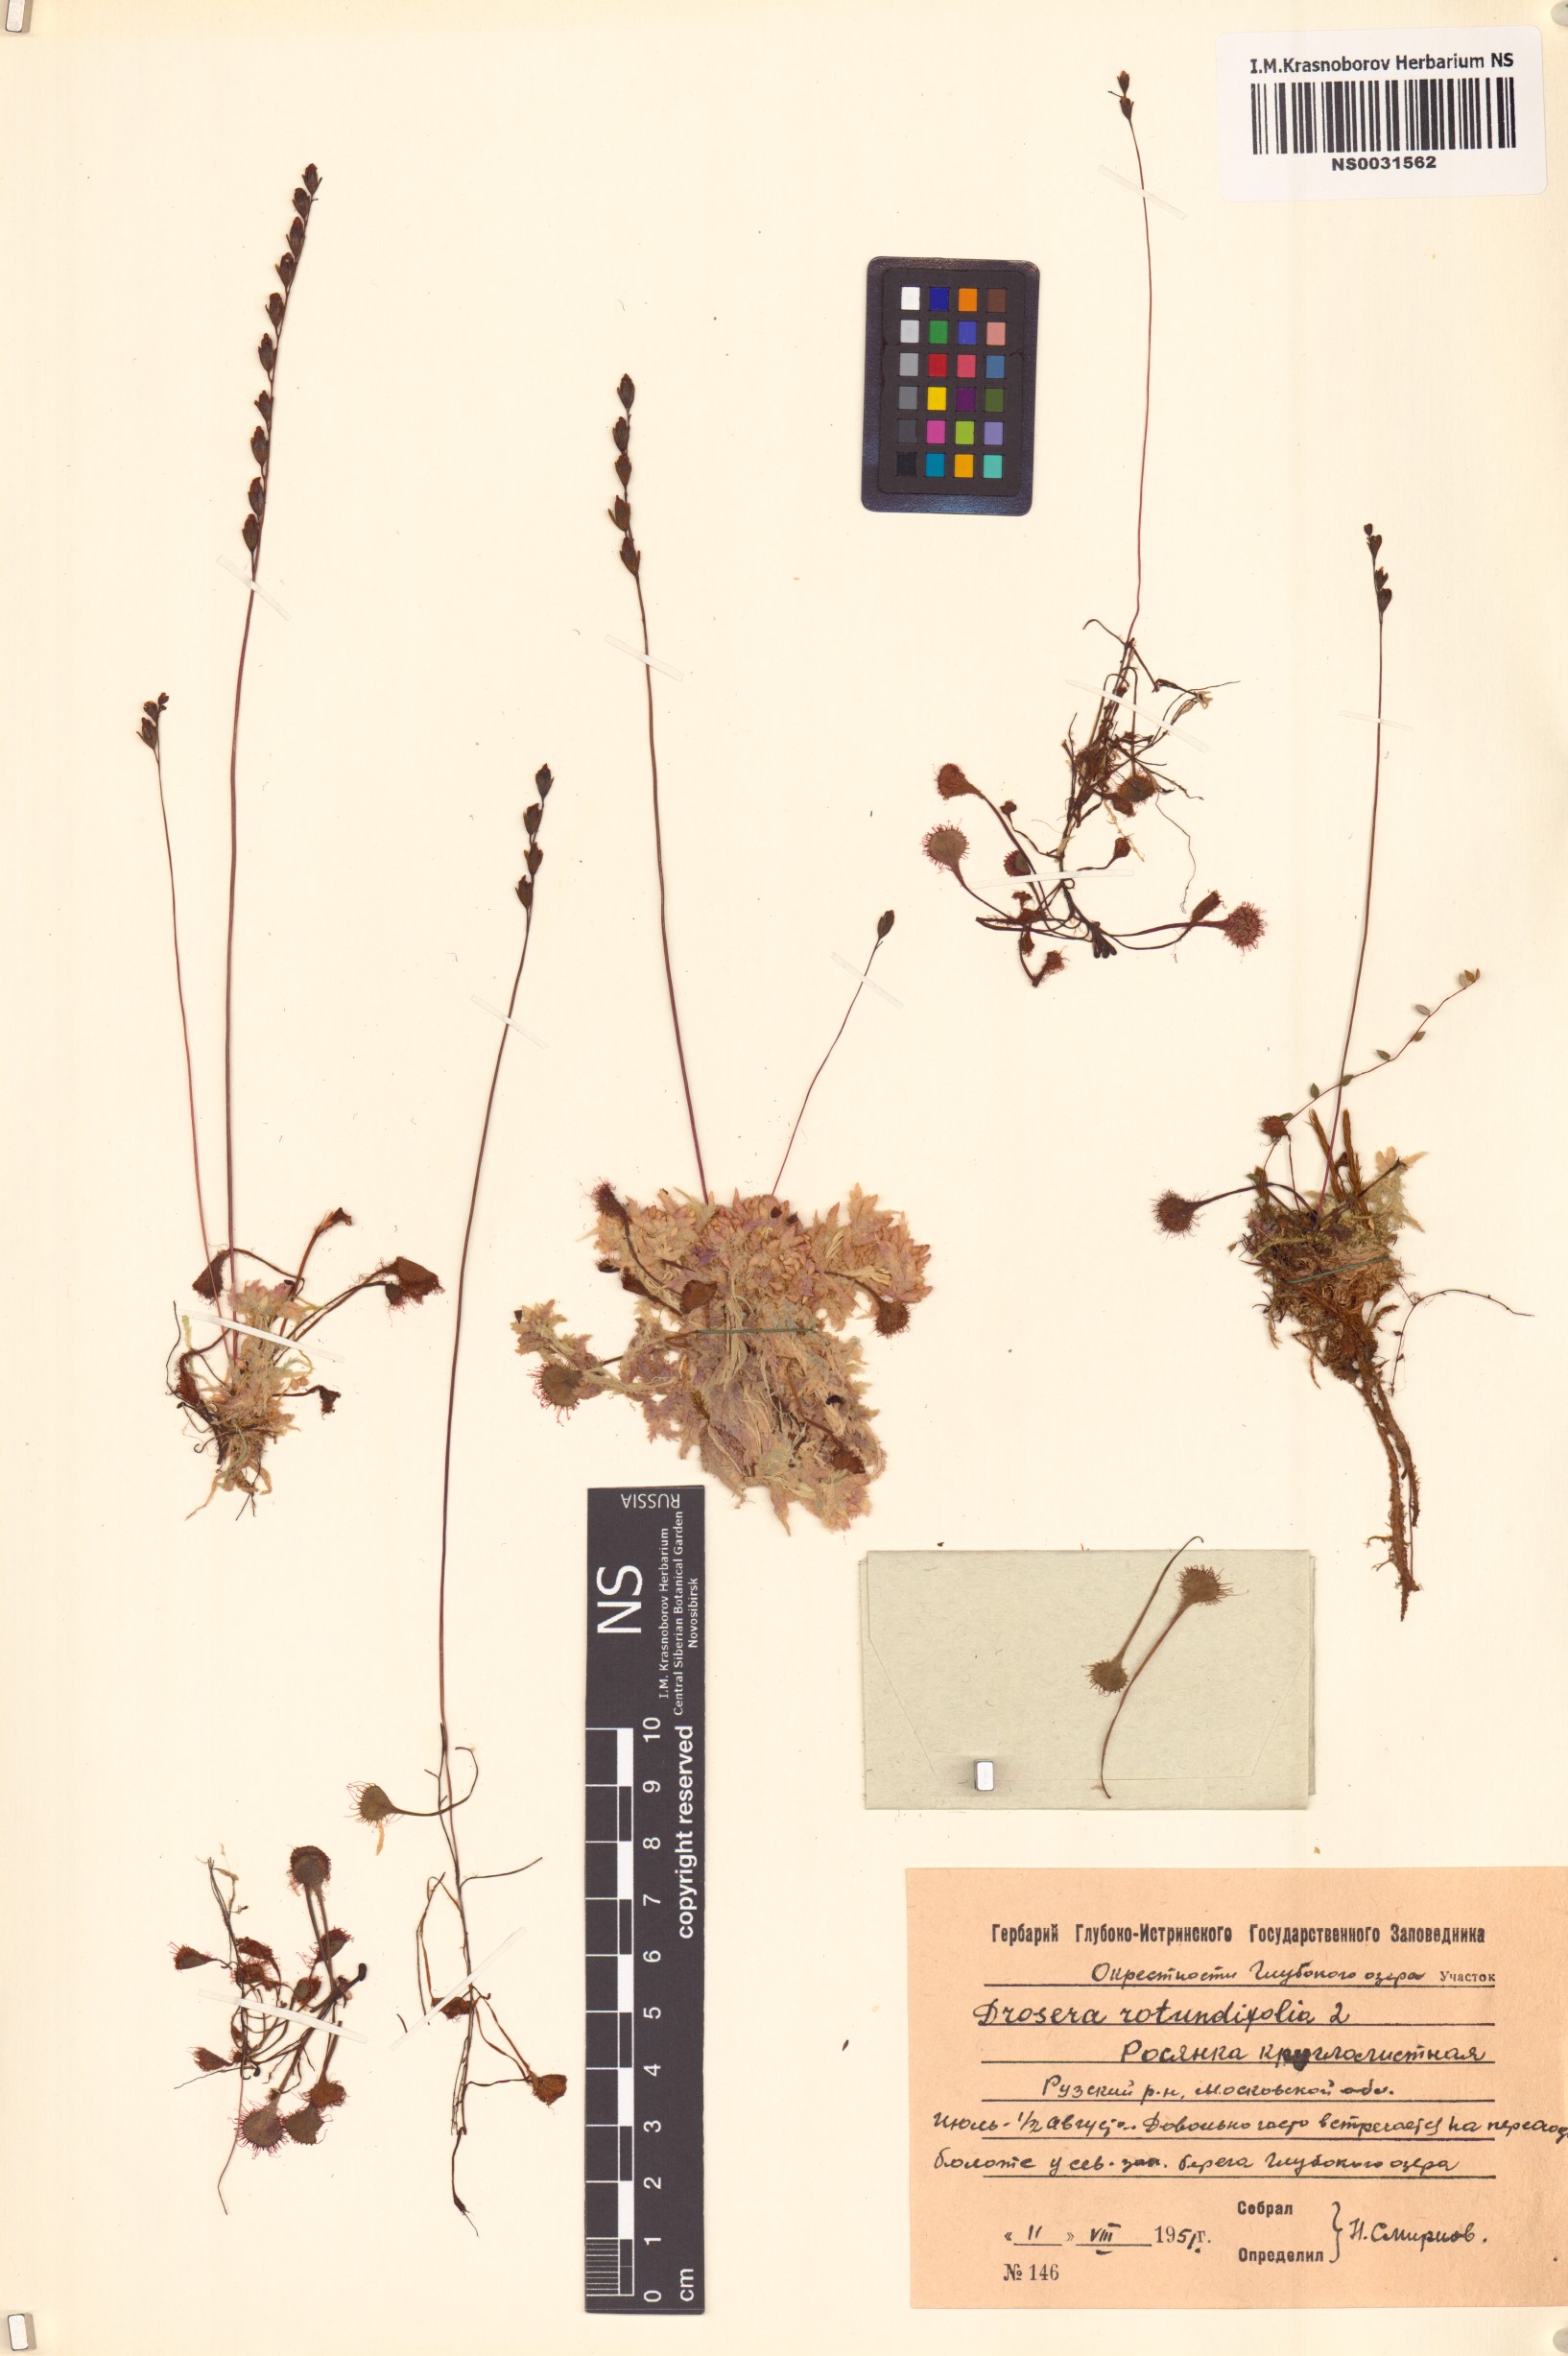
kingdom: Plantae
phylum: Tracheophyta
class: Magnoliopsida
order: Caryophyllales
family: Droseraceae
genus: Drosera
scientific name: Drosera rotundifolia
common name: Round-leaved sundew
